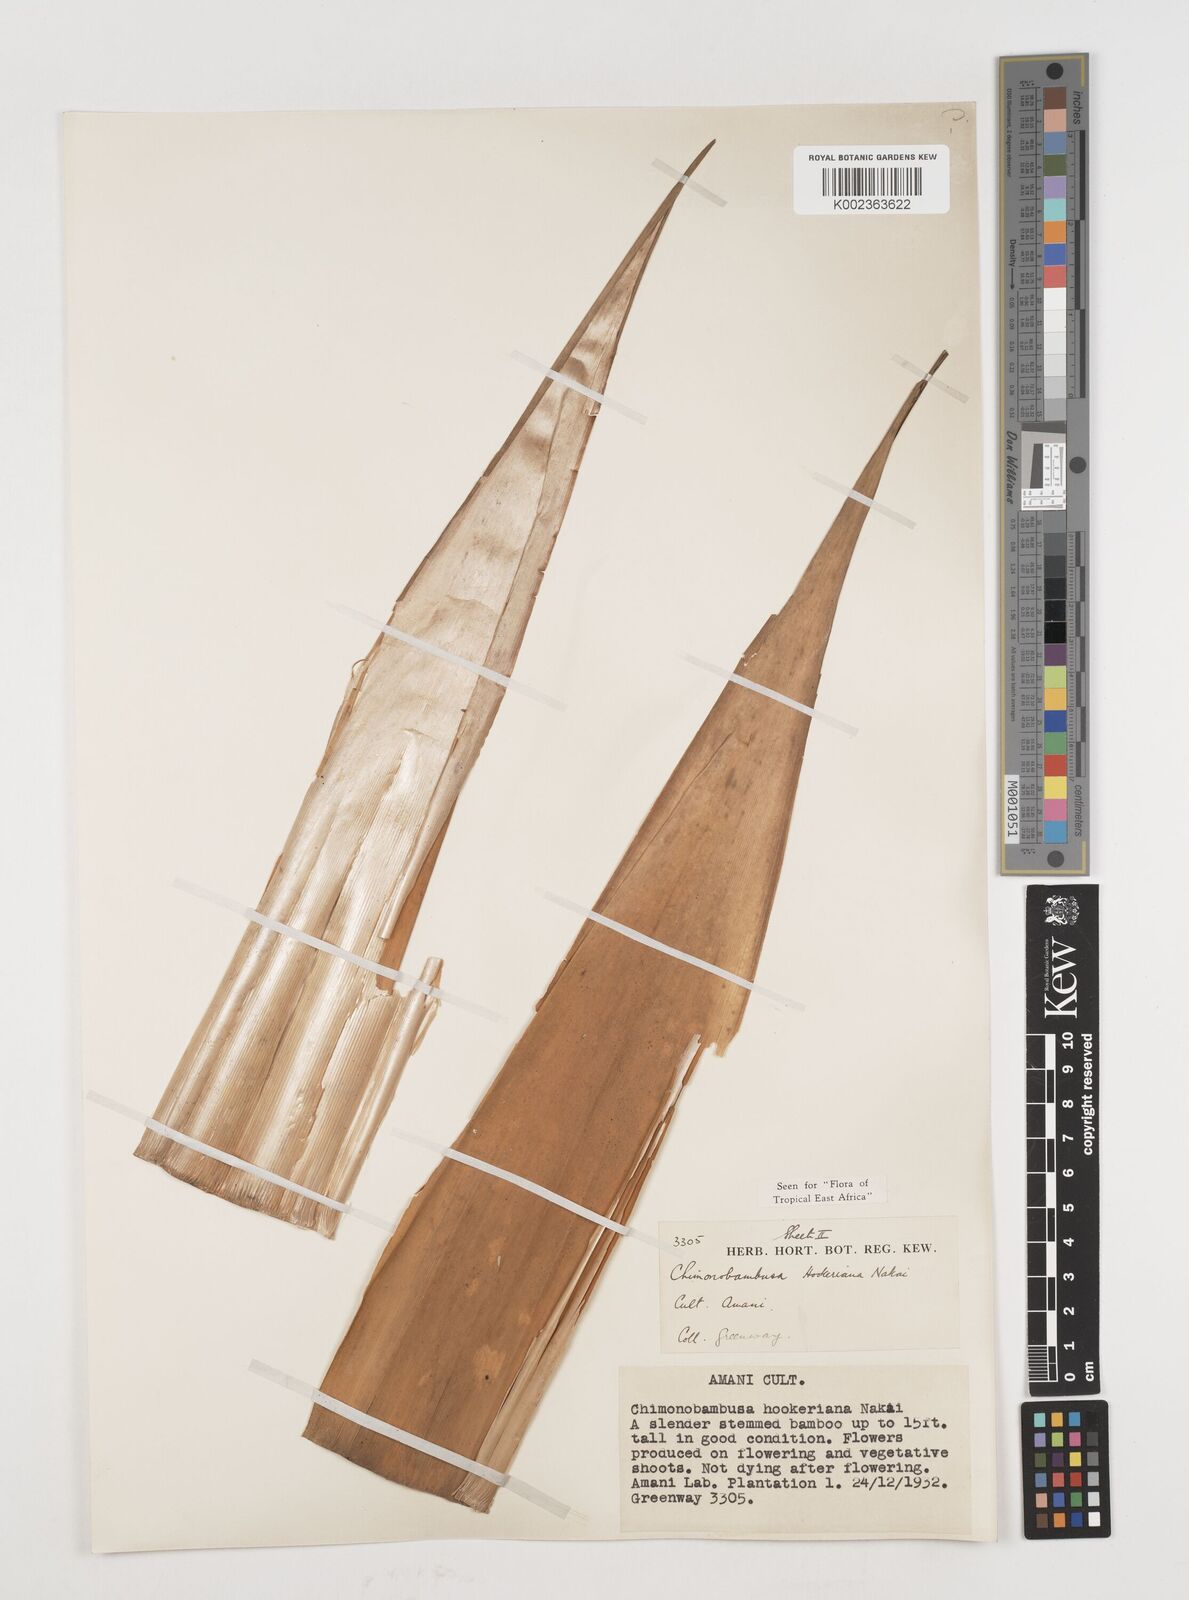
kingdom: Plantae
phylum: Tracheophyta
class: Liliopsida
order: Poales
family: Poaceae
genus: Himalayacalamus
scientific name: Himalayacalamus hookerianus
